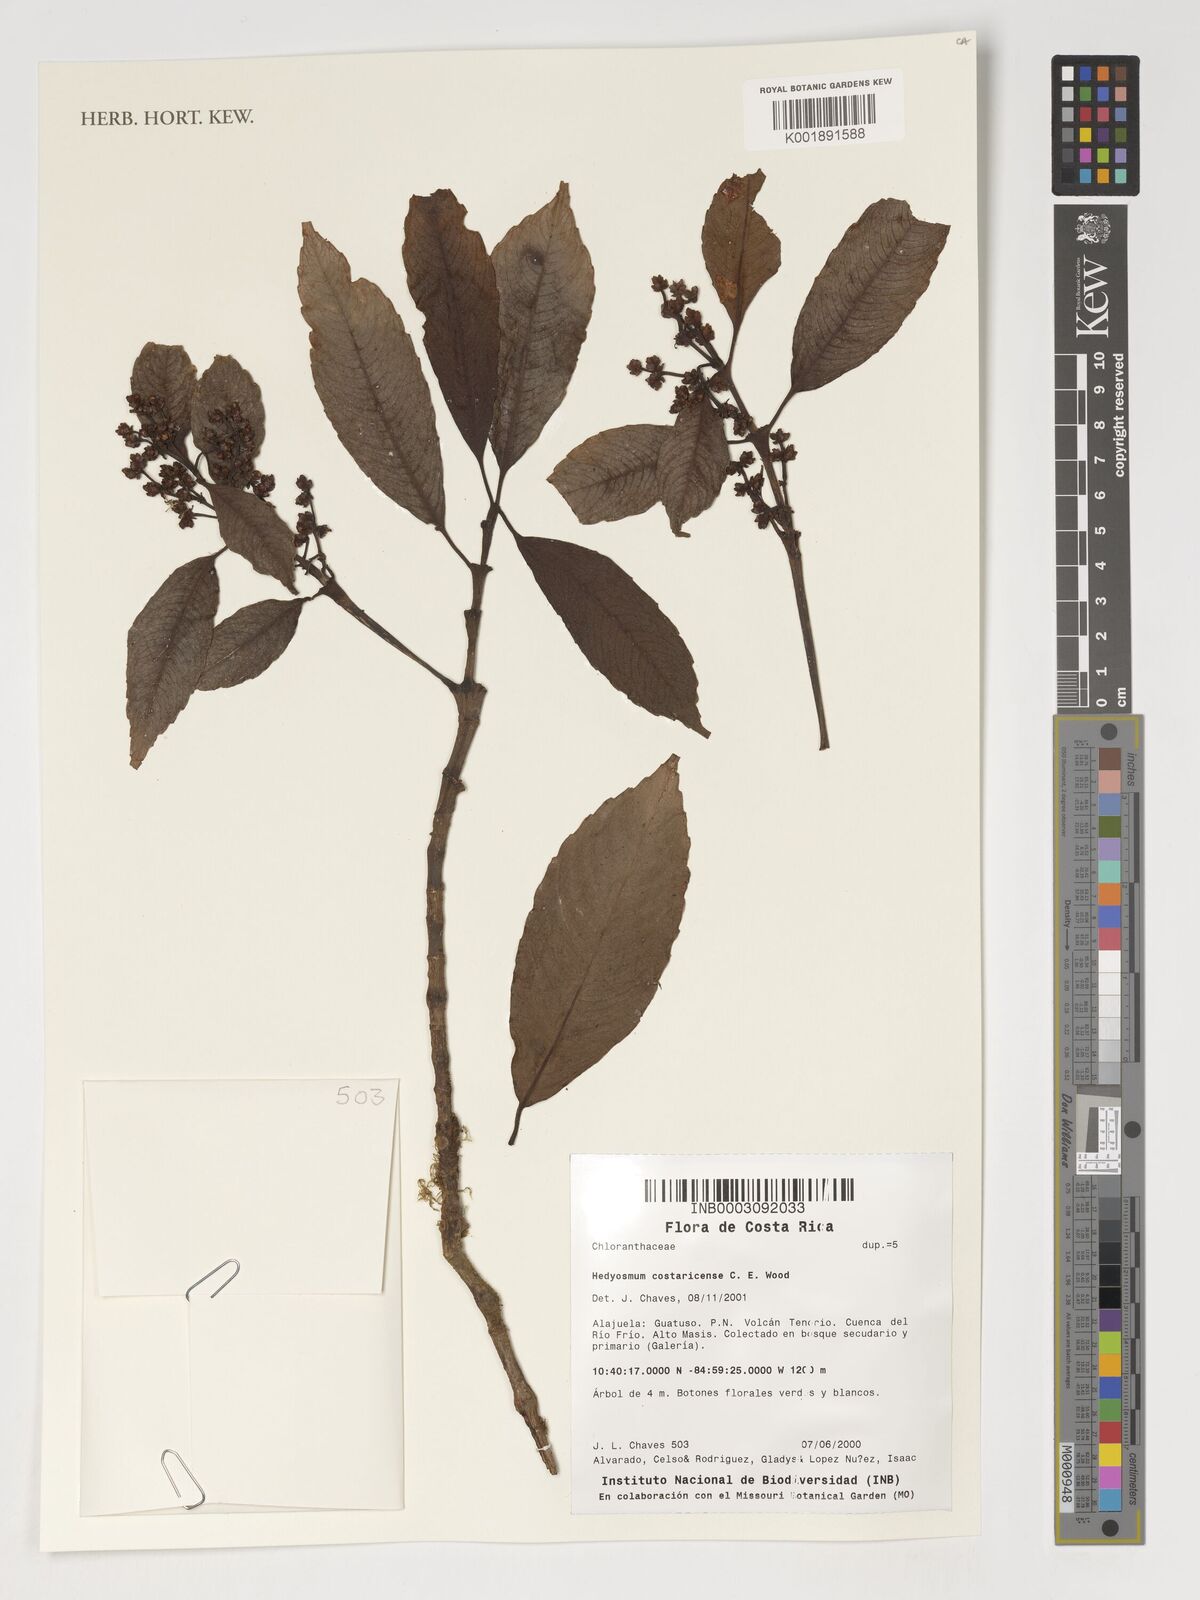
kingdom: Plantae
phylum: Tracheophyta
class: Magnoliopsida
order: Chloranthales
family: Chloranthaceae
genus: Hedyosmum
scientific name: Hedyosmum costaricense
